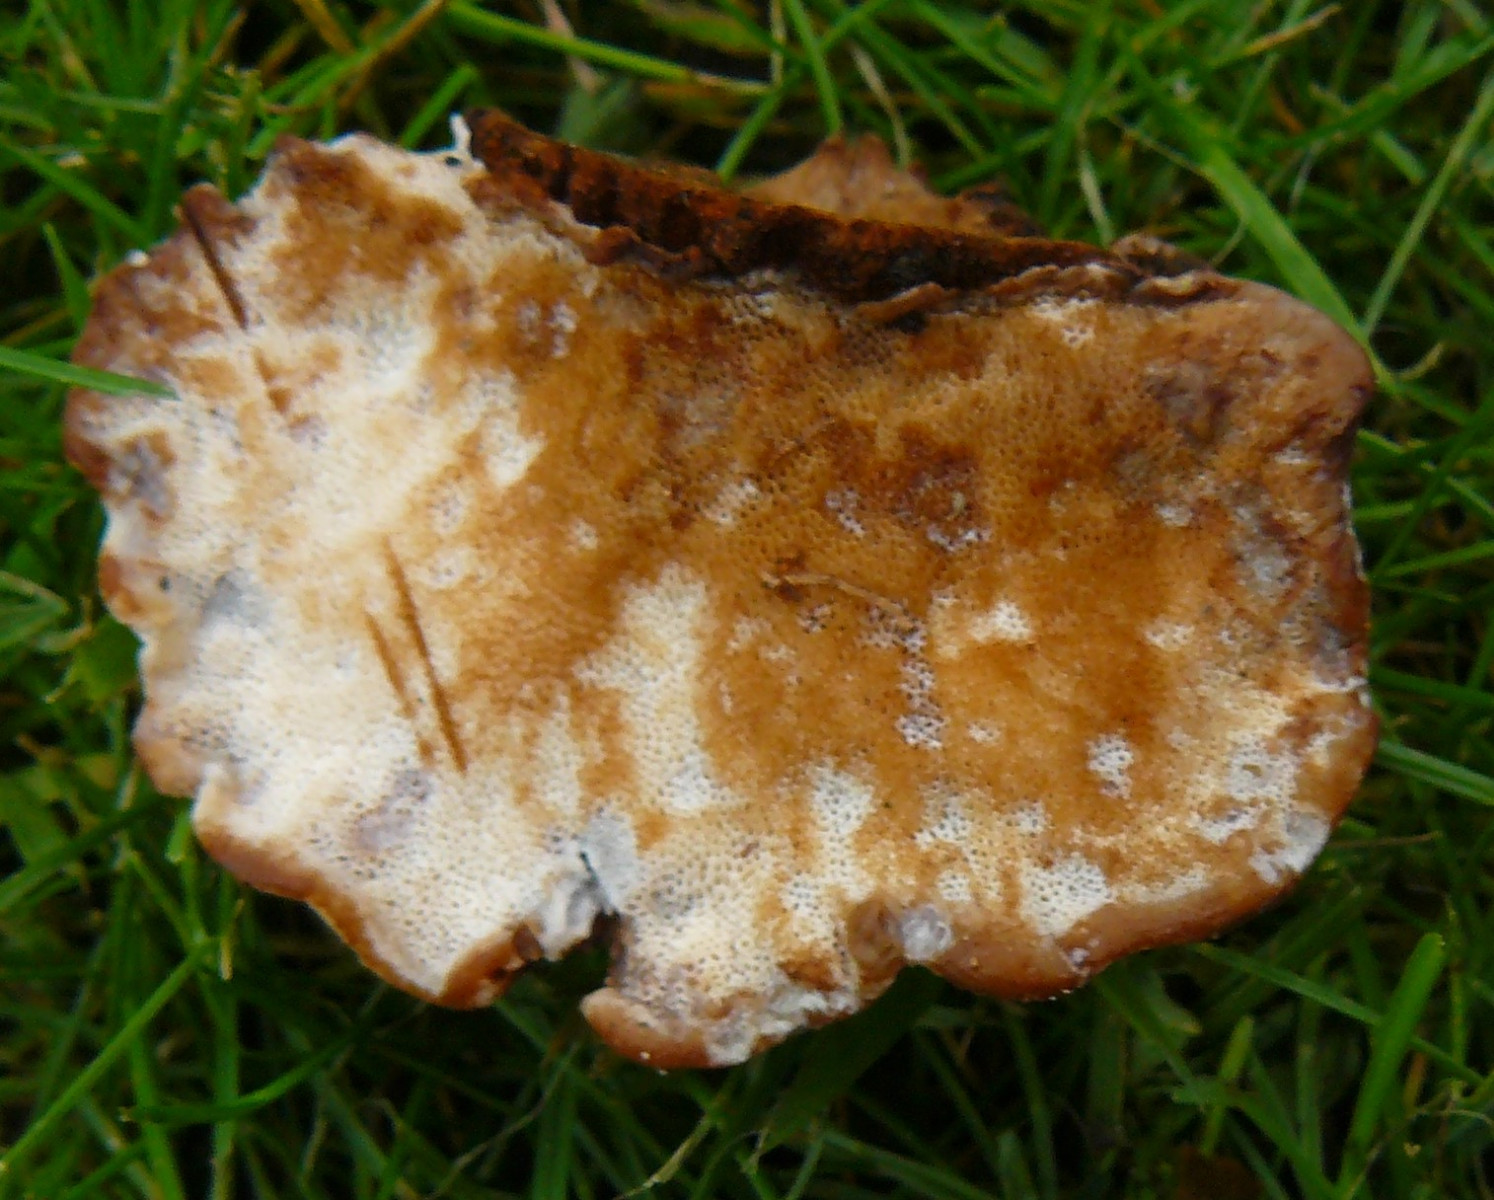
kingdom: Fungi
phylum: Basidiomycota
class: Agaricomycetes
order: Polyporales
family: Ischnodermataceae
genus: Ischnoderma
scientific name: Ischnoderma benzoinum
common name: gran-tjæreporesvamp
